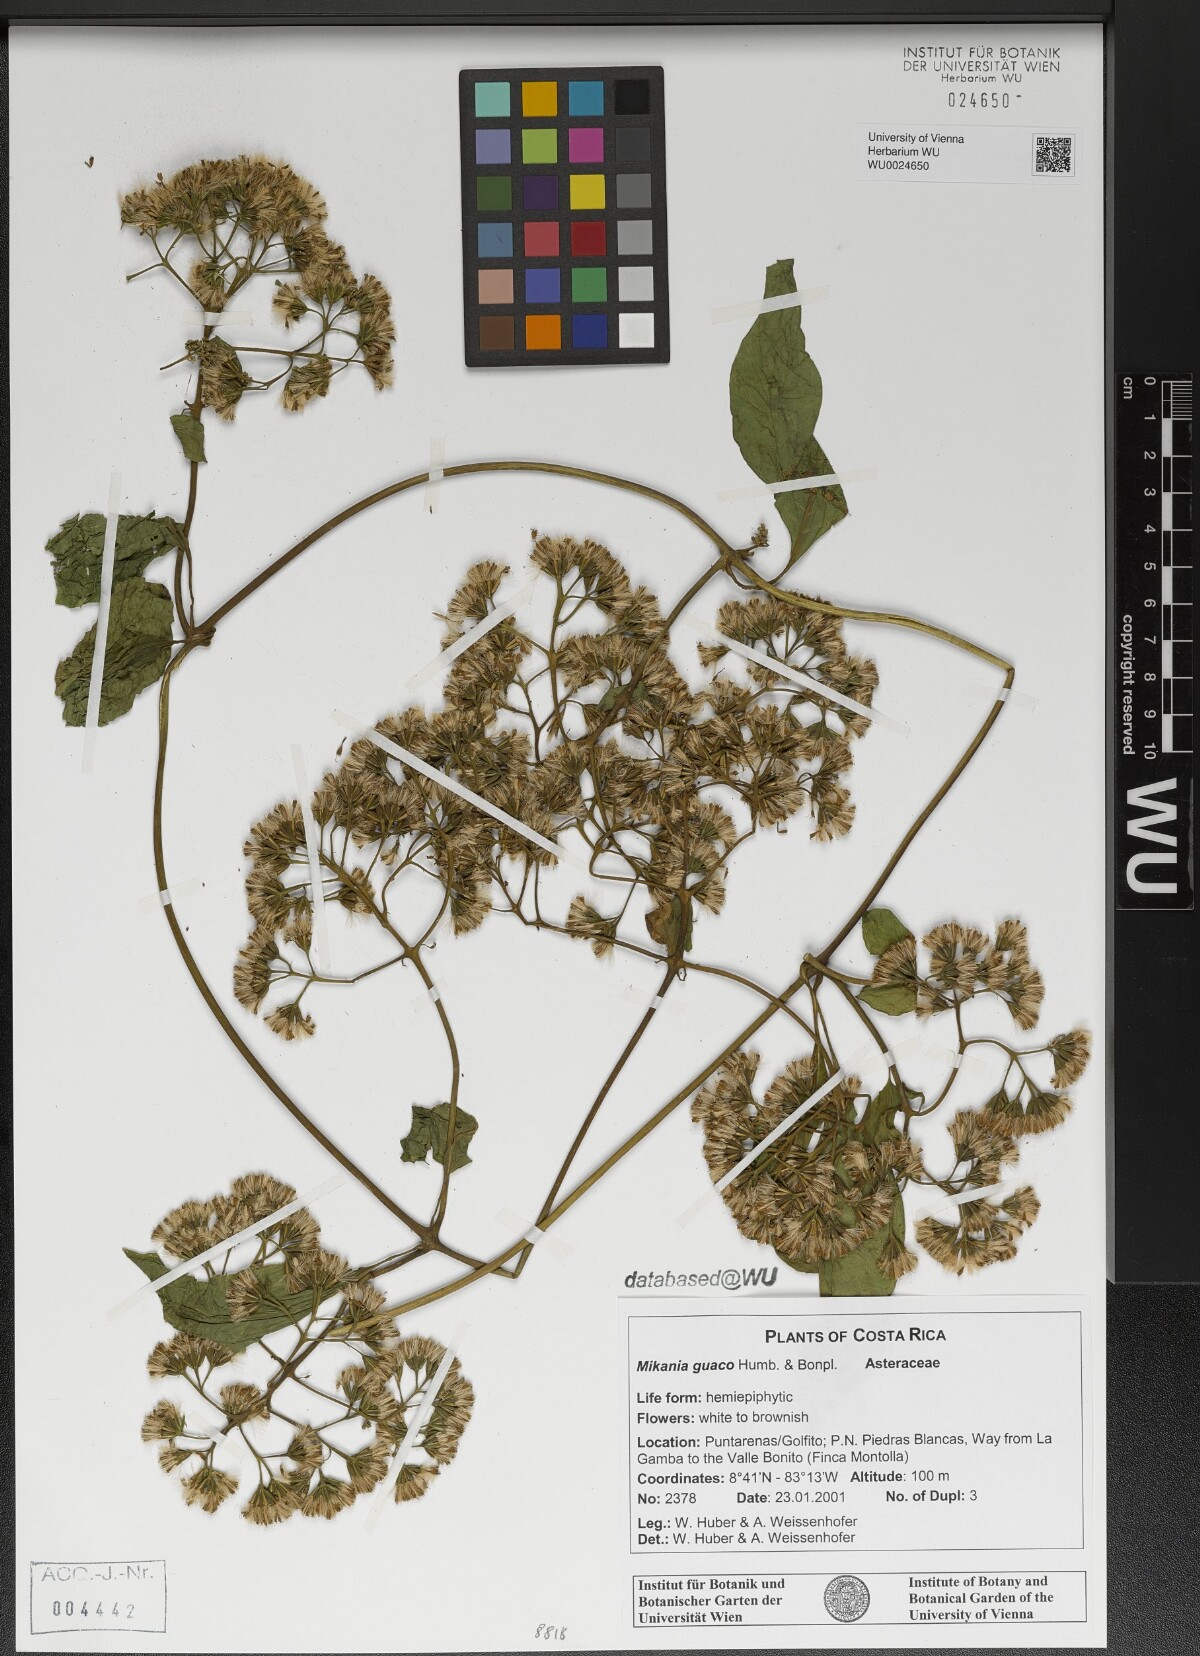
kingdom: Plantae
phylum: Tracheophyta
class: Magnoliopsida
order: Asterales
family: Asteraceae
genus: Mikania
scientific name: Mikania guaco
